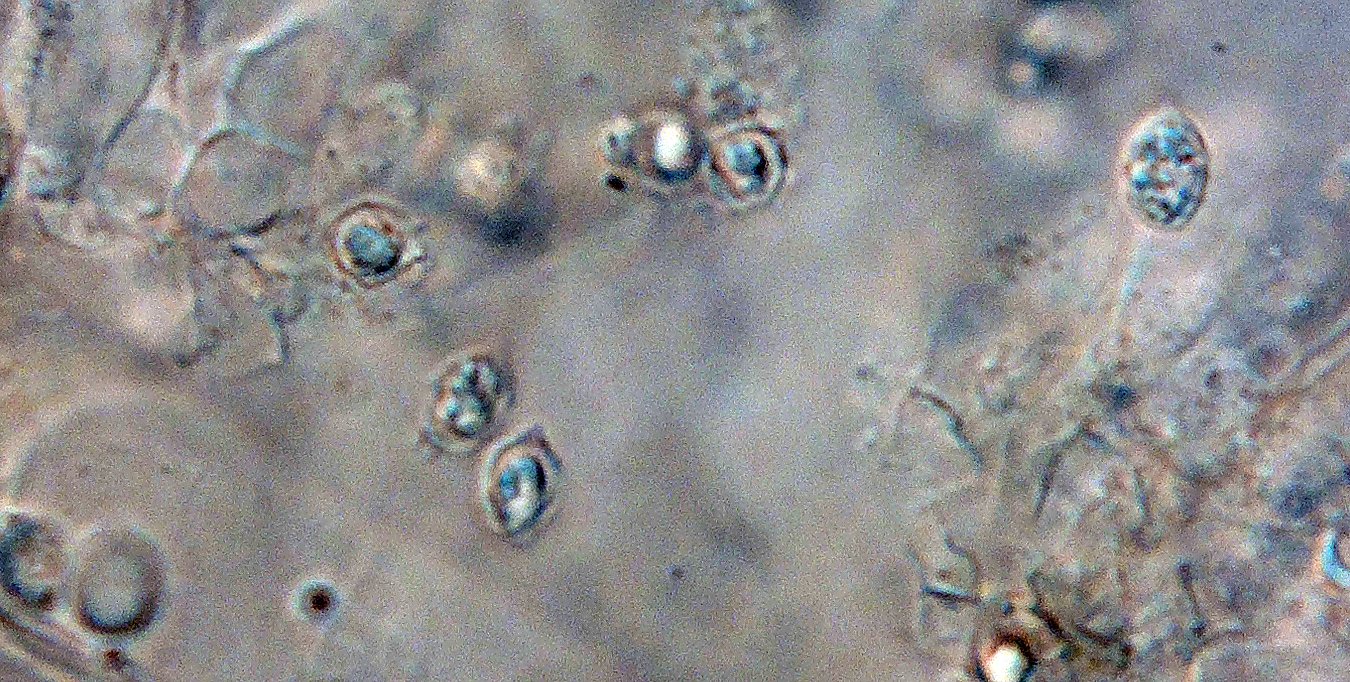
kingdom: Fungi
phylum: Basidiomycota
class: Agaricomycetes
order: Agaricales
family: Entolomataceae
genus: Rhodophana
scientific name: Rhodophana melleopallens
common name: gul troldhat
